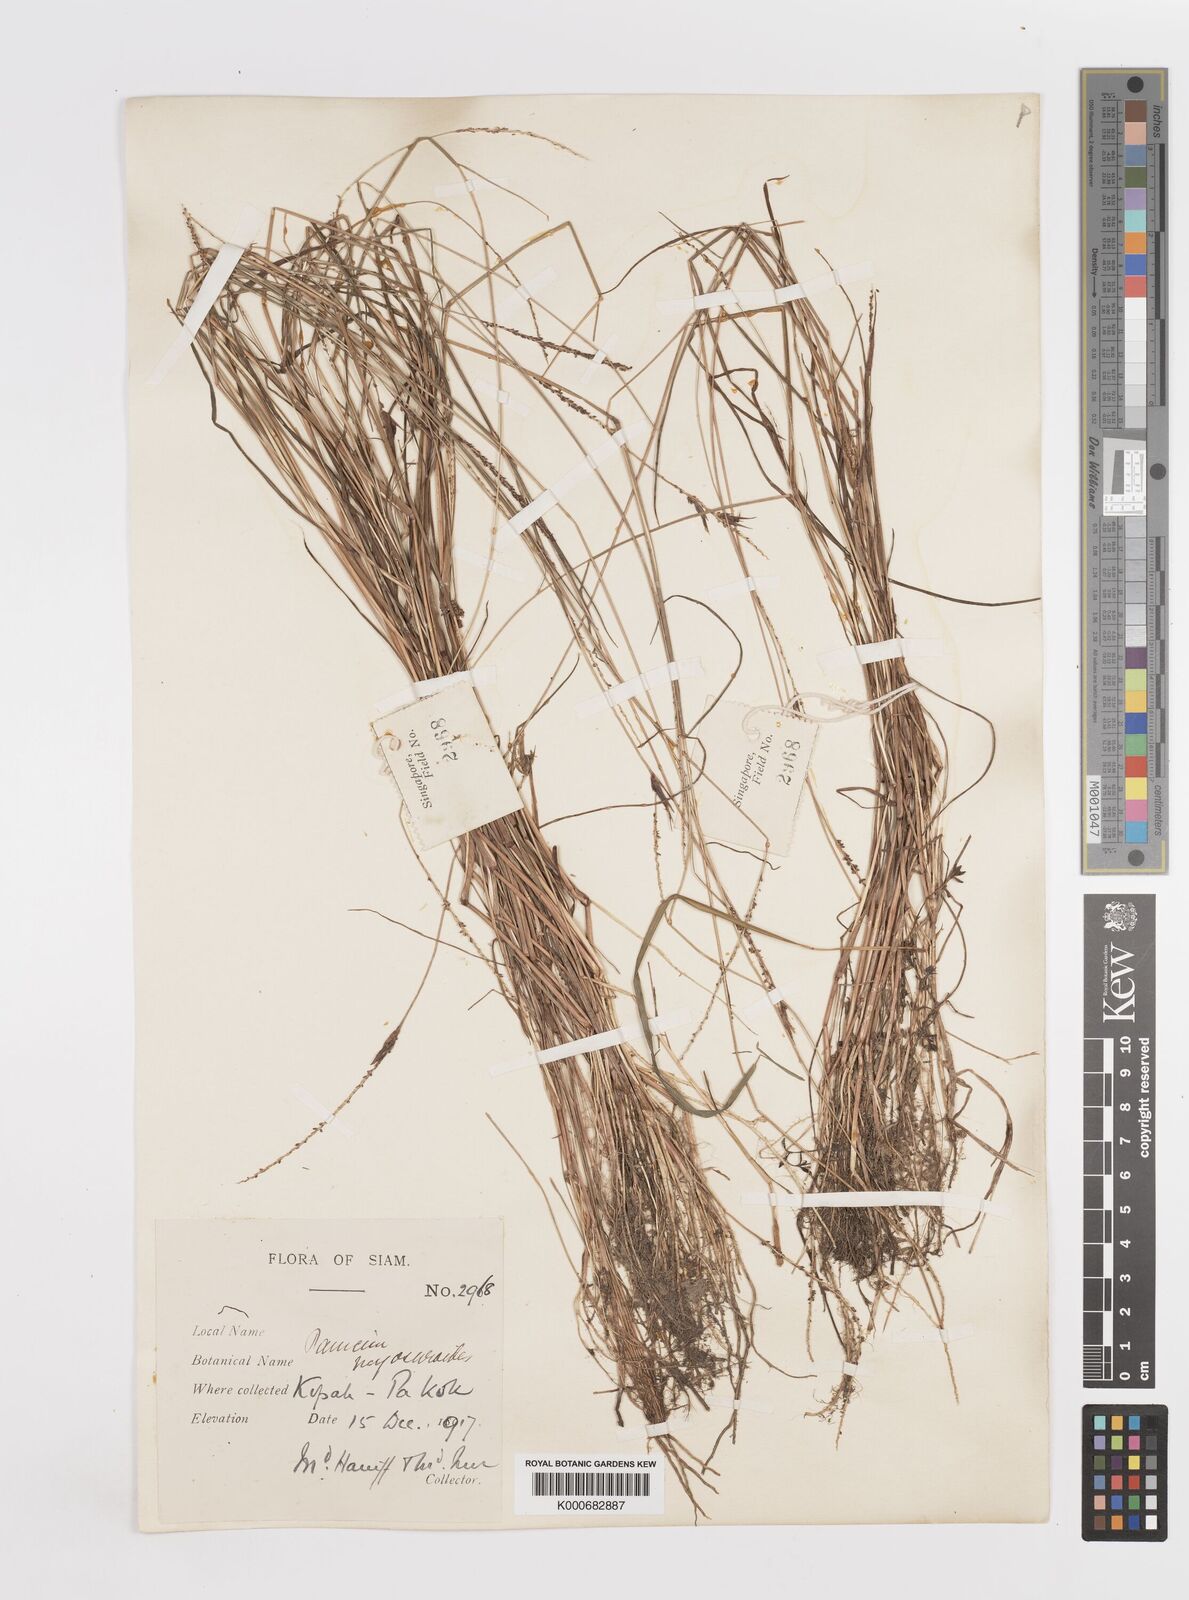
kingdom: Plantae
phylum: Tracheophyta
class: Liliopsida
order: Poales
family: Poaceae
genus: Sacciolepis
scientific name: Sacciolepis myosuroides
